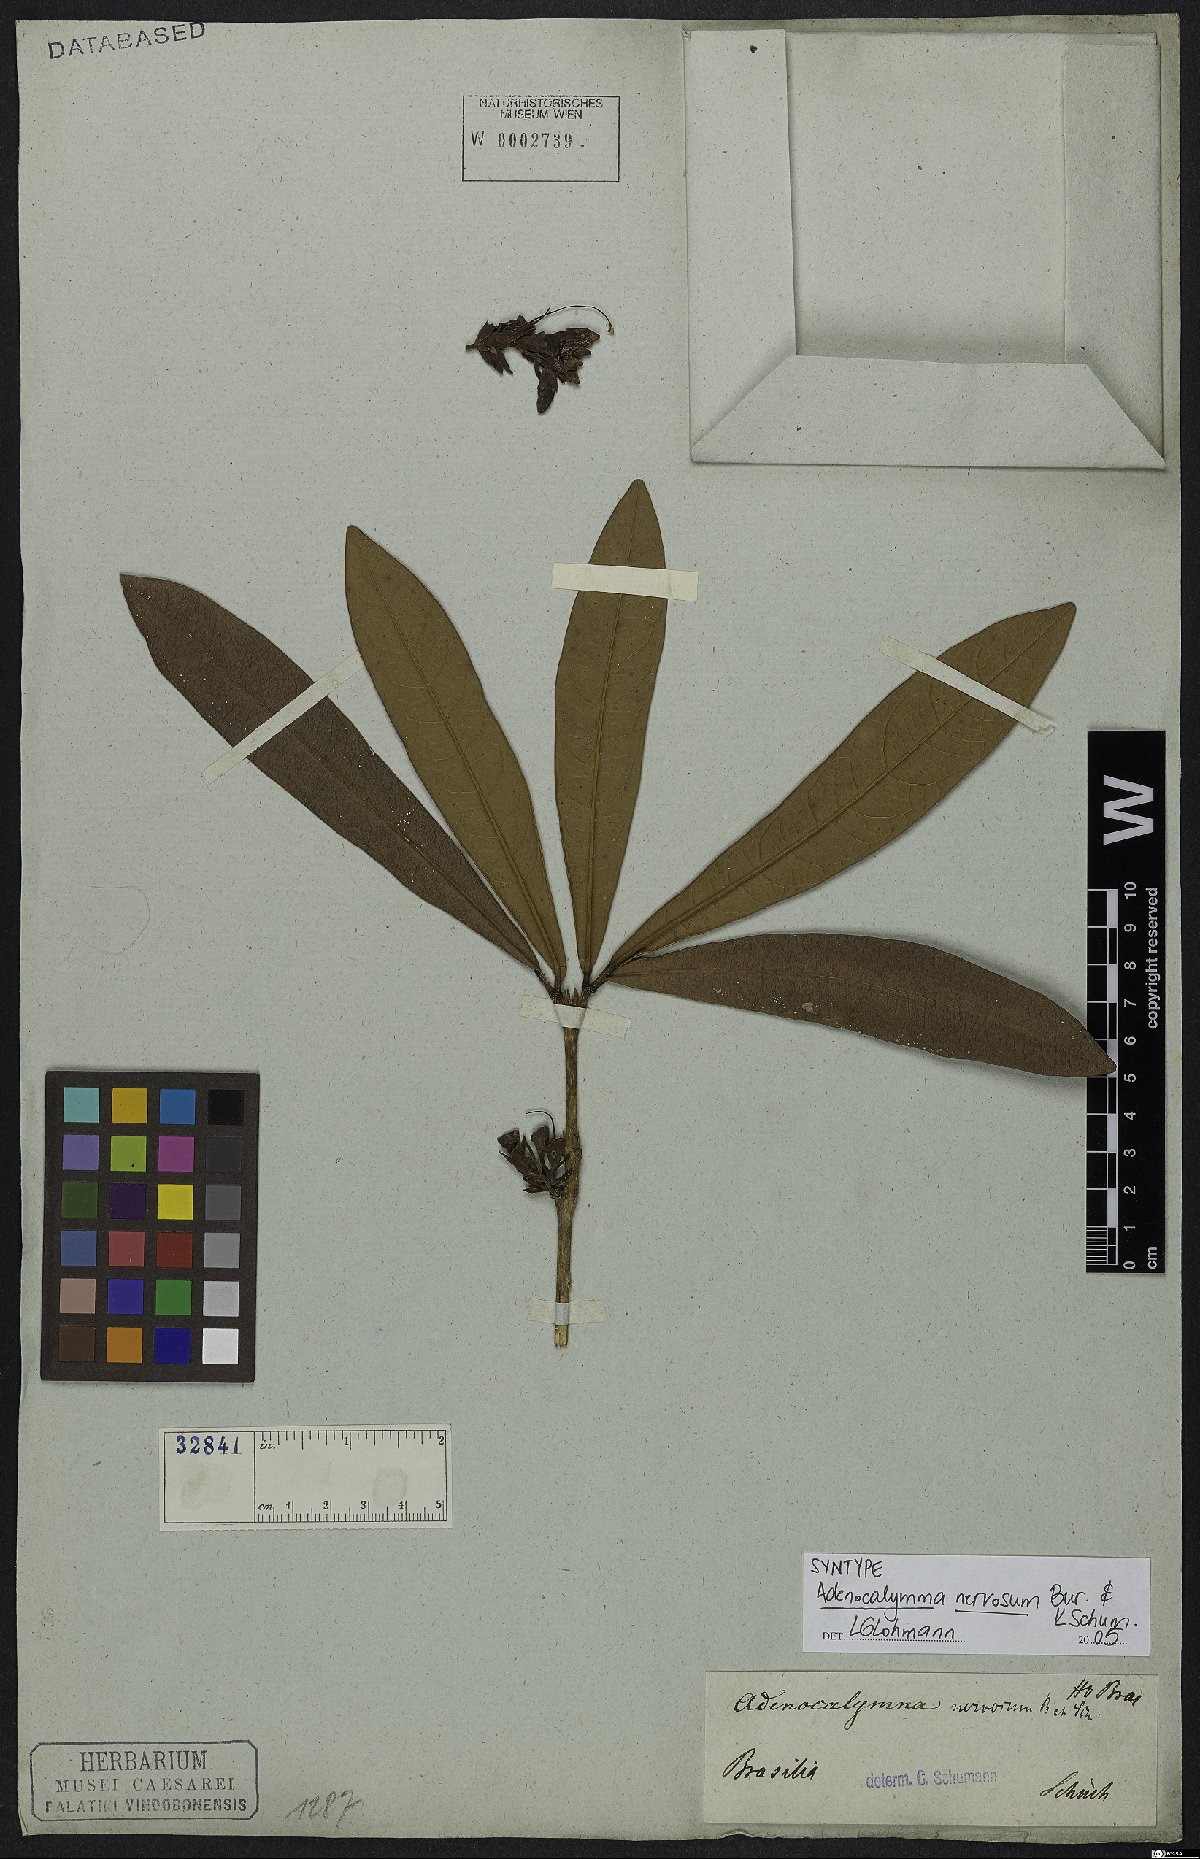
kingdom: Plantae
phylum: Tracheophyta
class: Magnoliopsida
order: Lamiales
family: Bignoniaceae
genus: Adenocalymma
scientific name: Adenocalymma nervosum
